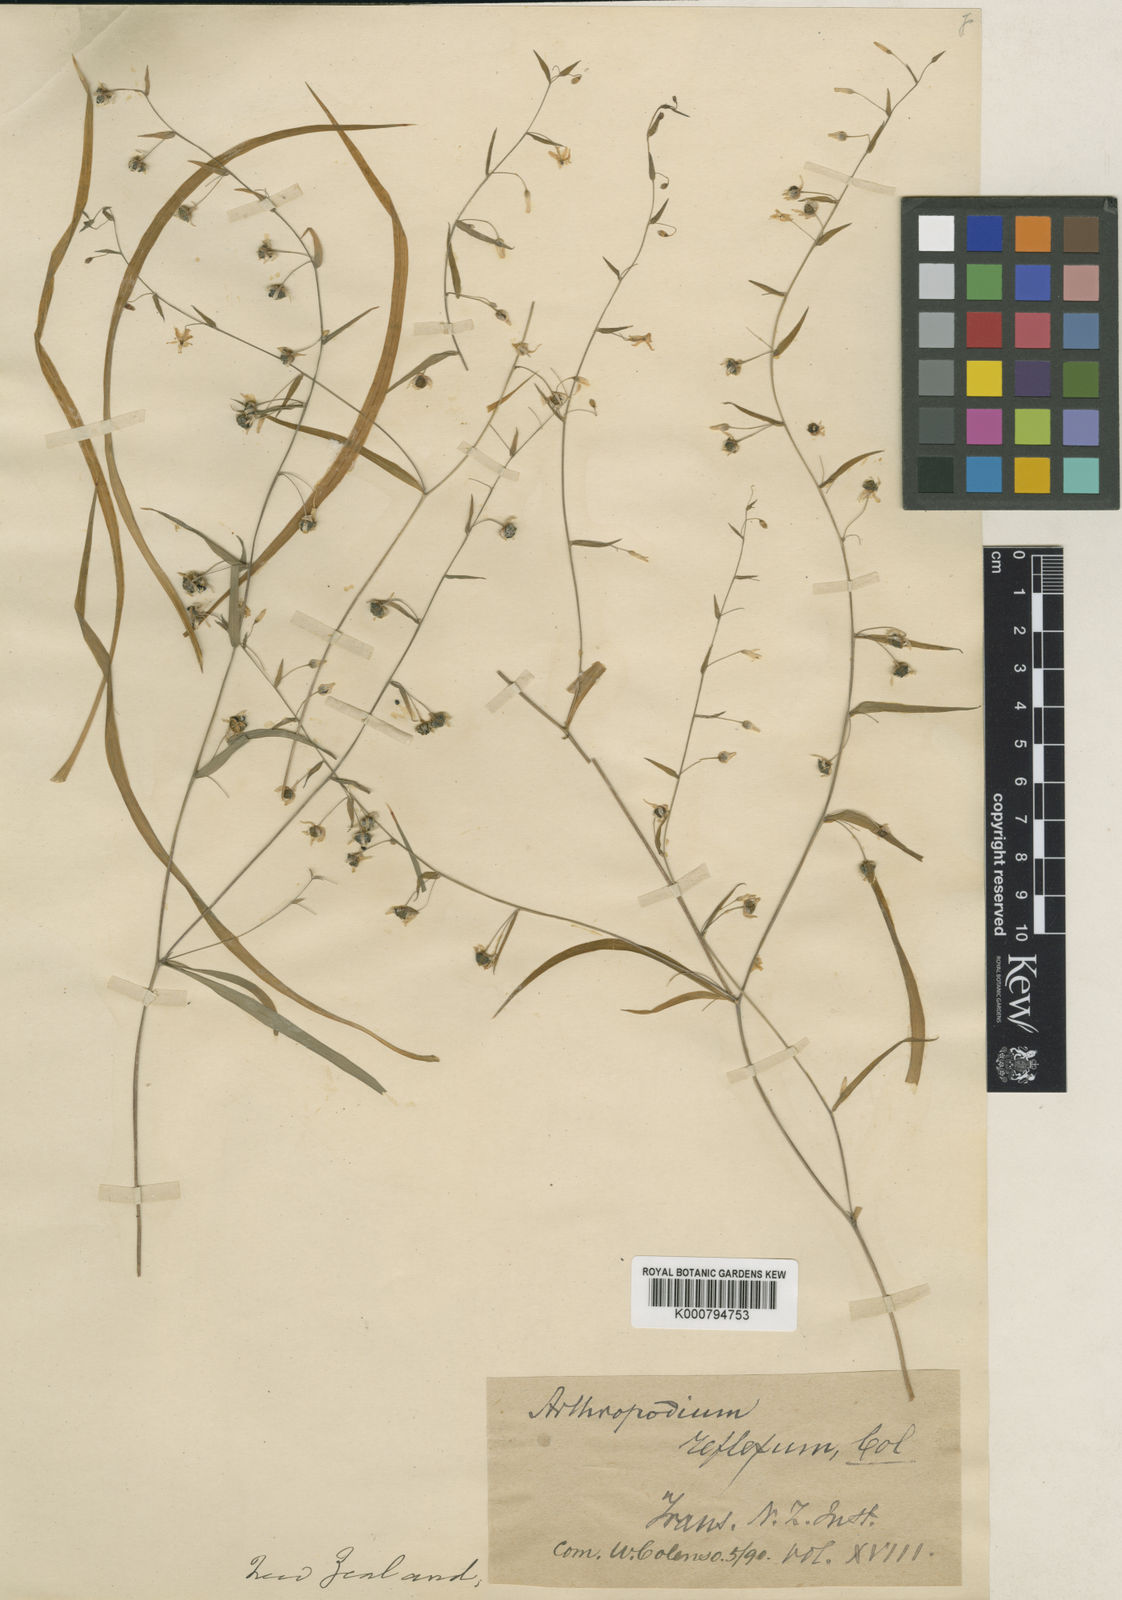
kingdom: Plantae
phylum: Tracheophyta
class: Liliopsida
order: Asparagales
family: Asparagaceae
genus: Arthropodium
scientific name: Arthropodium candidum
